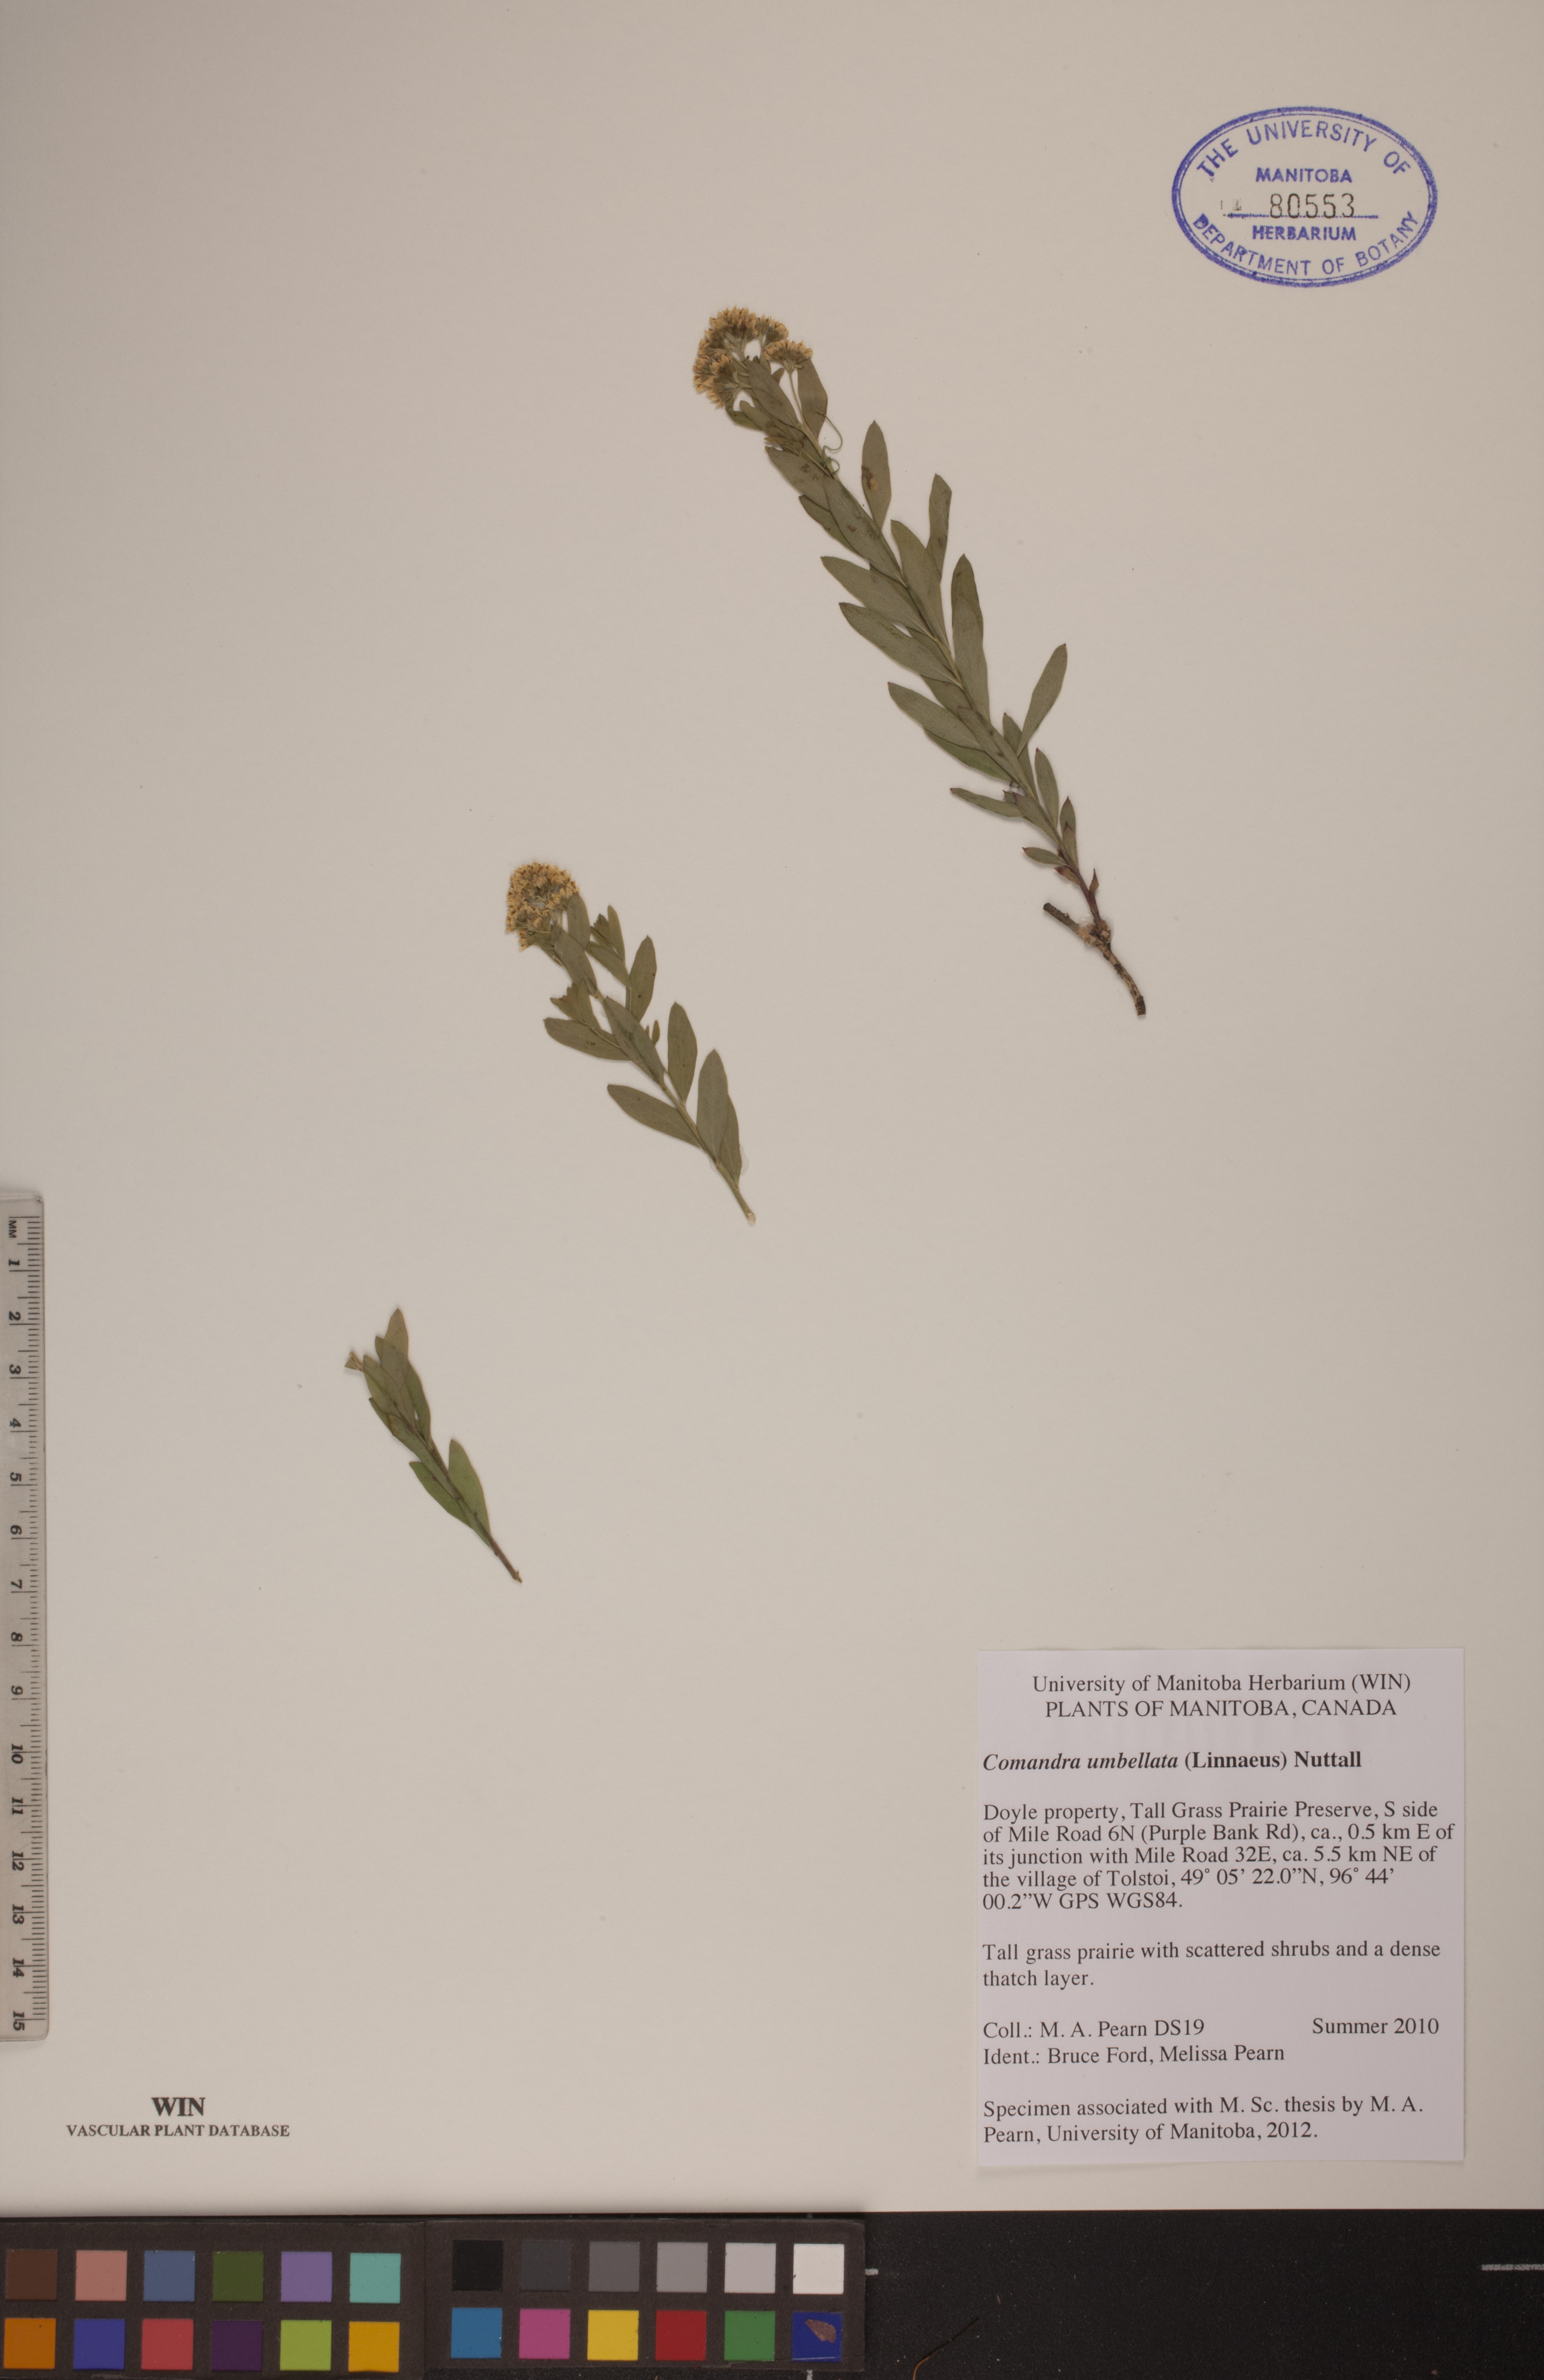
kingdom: Plantae
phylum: Tracheophyta
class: Magnoliopsida
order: Santalales
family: Comandraceae
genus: Comandra
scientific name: Comandra umbellata
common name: Bastard toadflax
